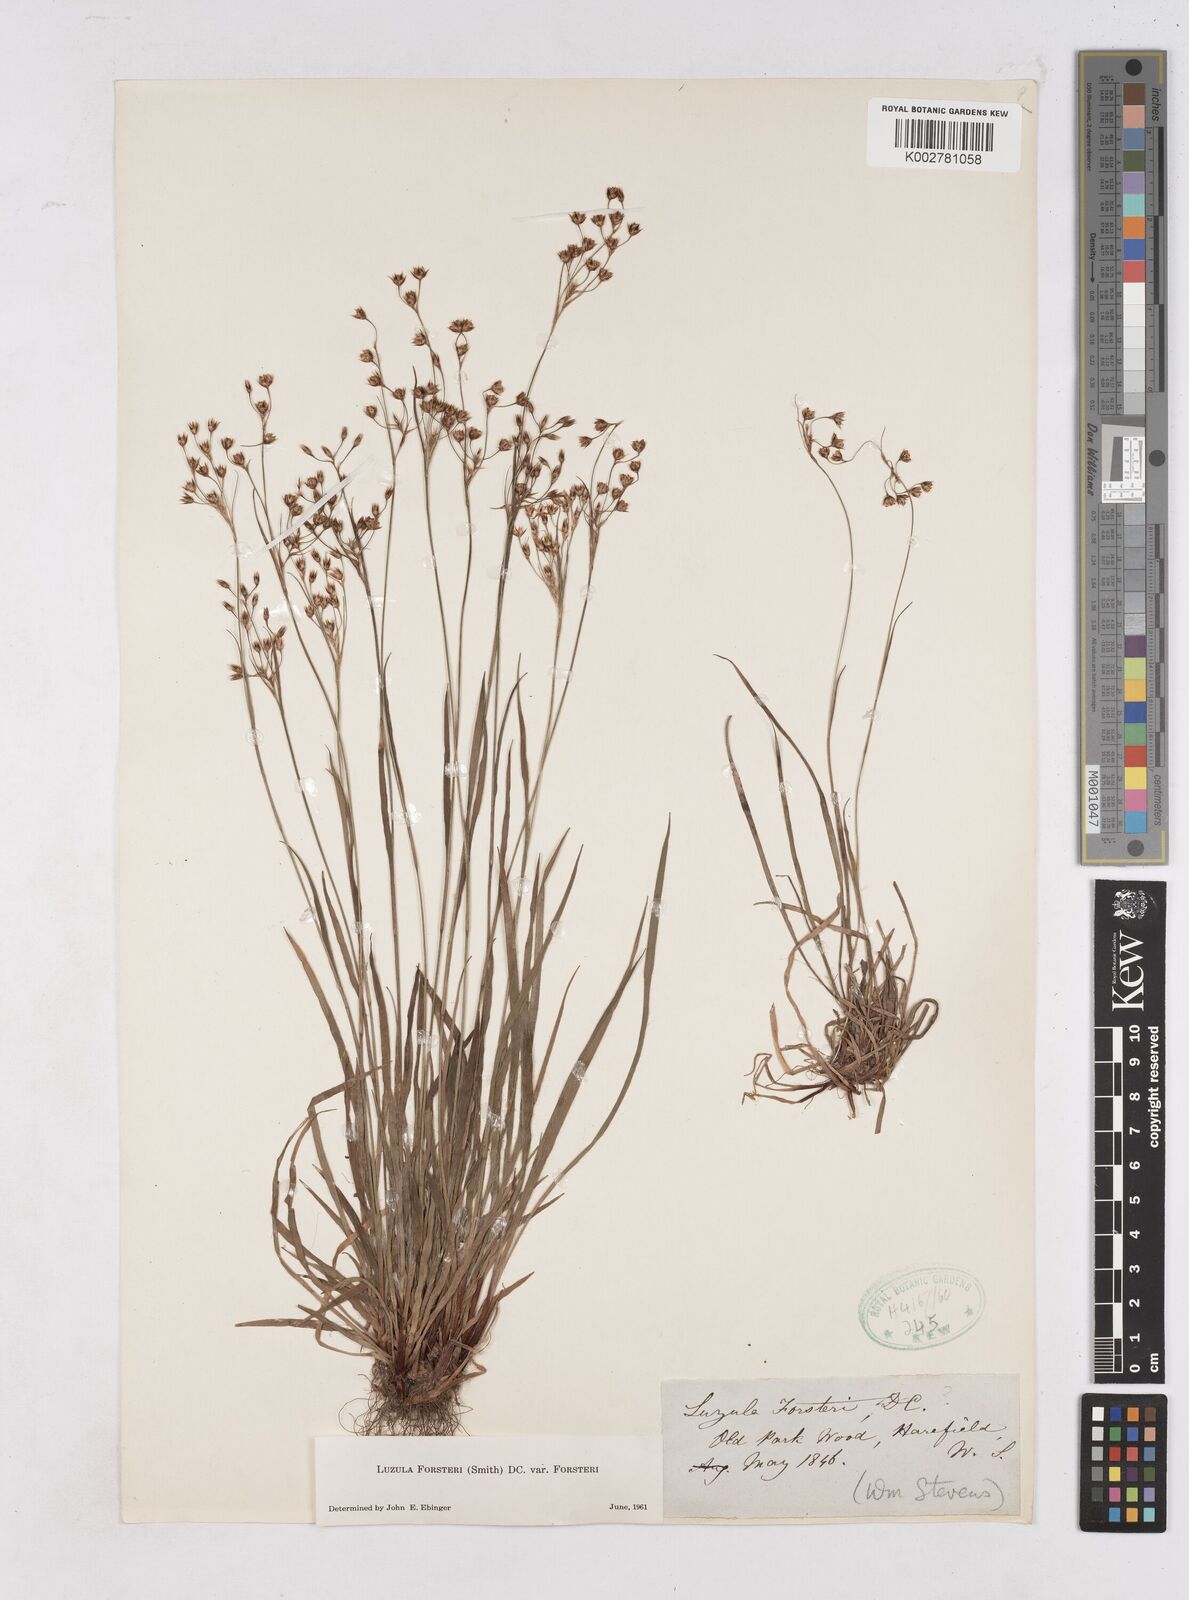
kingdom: Plantae
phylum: Tracheophyta
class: Liliopsida
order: Poales
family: Juncaceae
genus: Luzula
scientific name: Luzula forsteri
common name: Southern wood-rush
